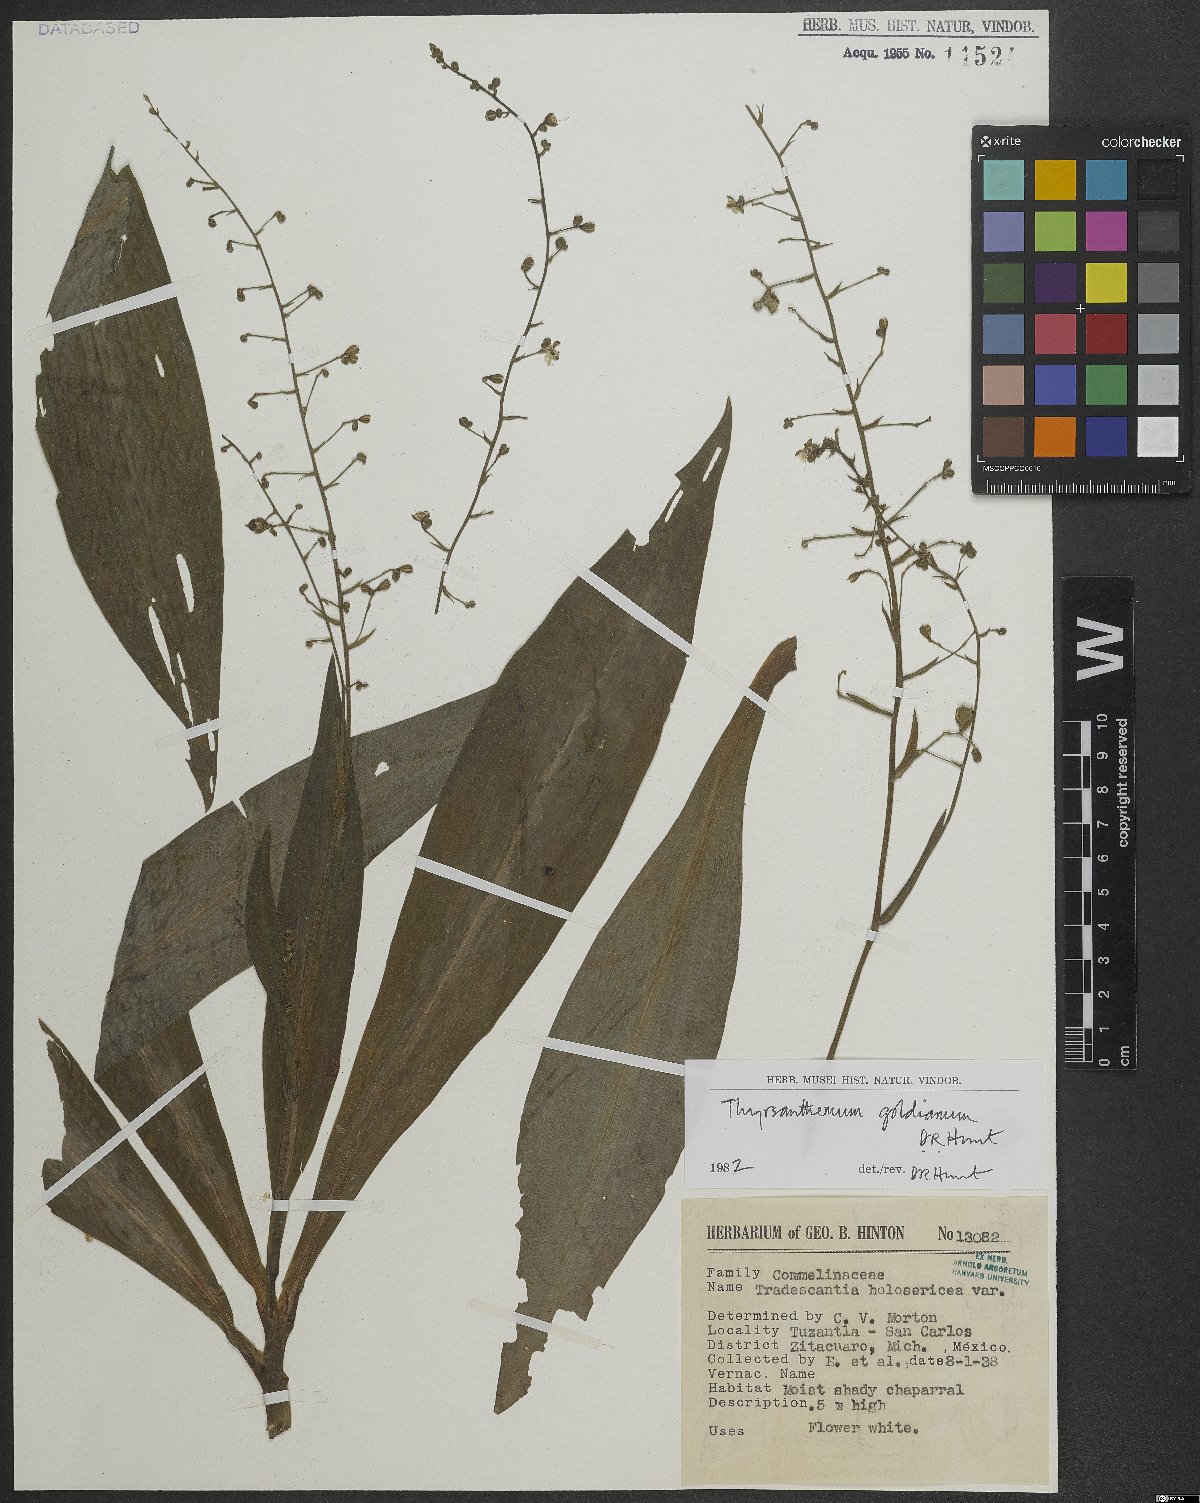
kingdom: Plantae
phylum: Tracheophyta
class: Liliopsida
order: Commelinales
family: Commelinaceae
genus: Thyrsanthemum
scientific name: Thyrsanthemum goldianum
